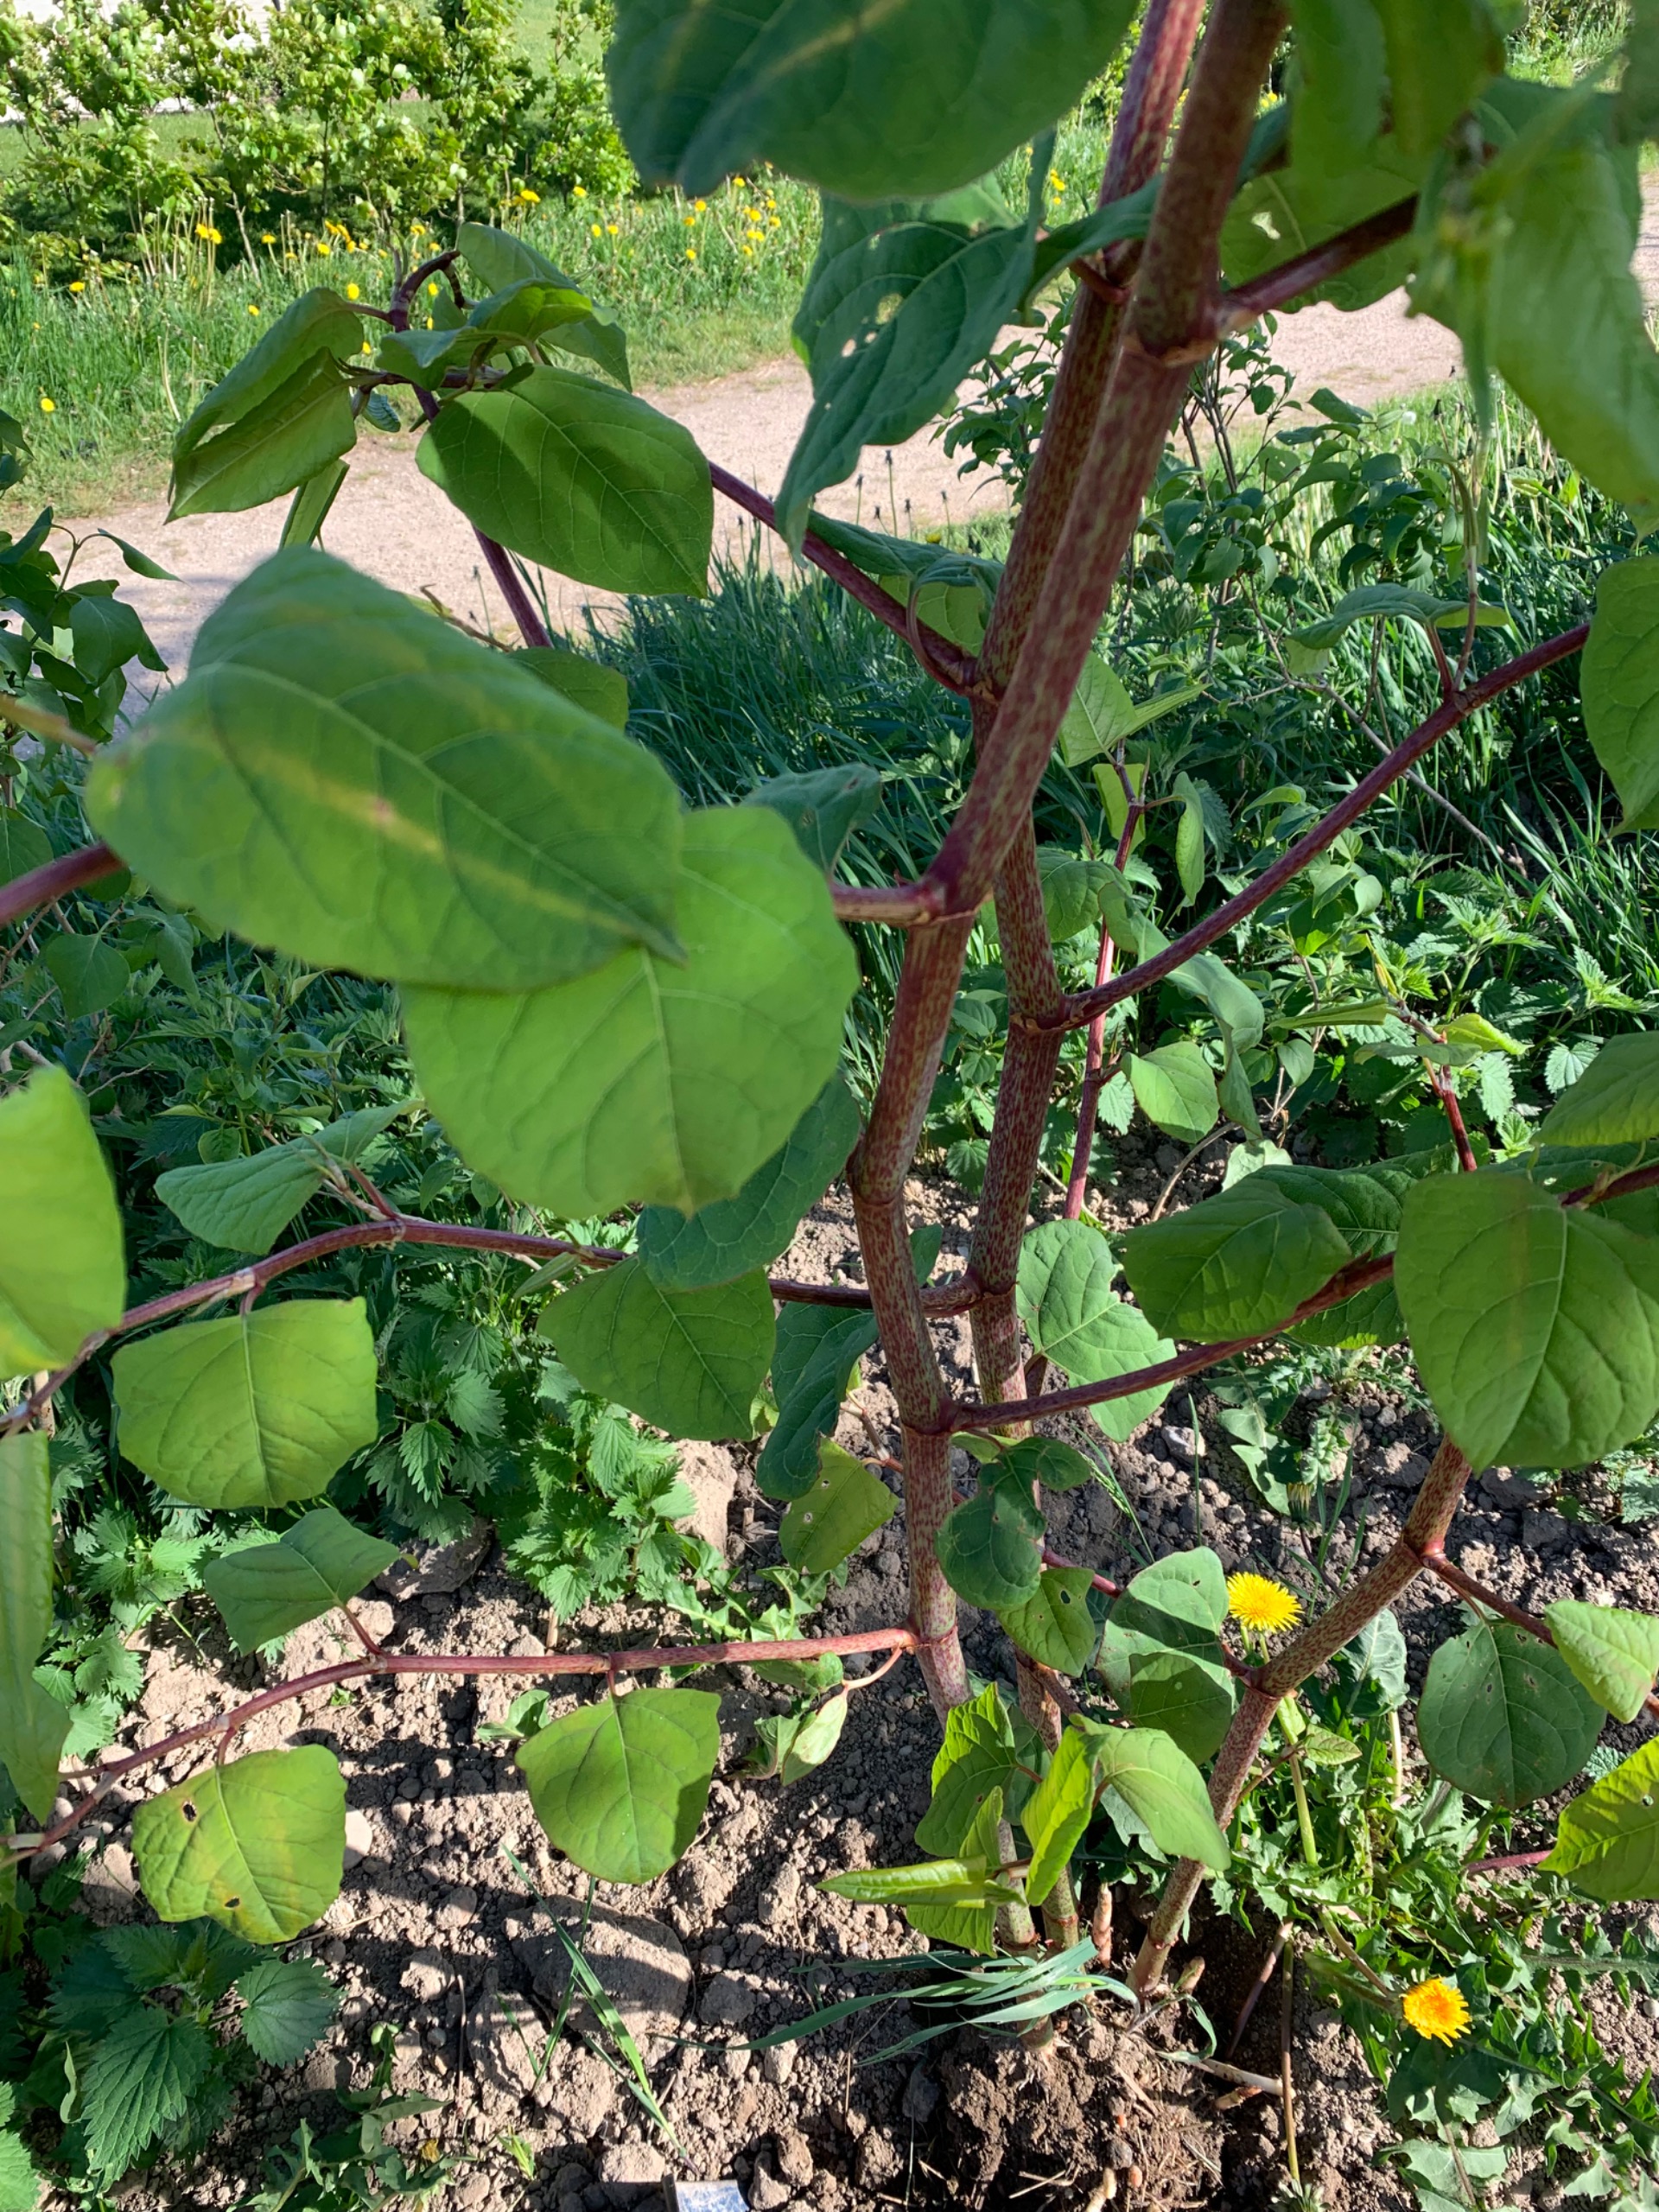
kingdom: Plantae
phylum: Tracheophyta
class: Magnoliopsida
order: Caryophyllales
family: Polygonaceae
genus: Reynoutria
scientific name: Reynoutria japonica
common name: Japan-pileurt
